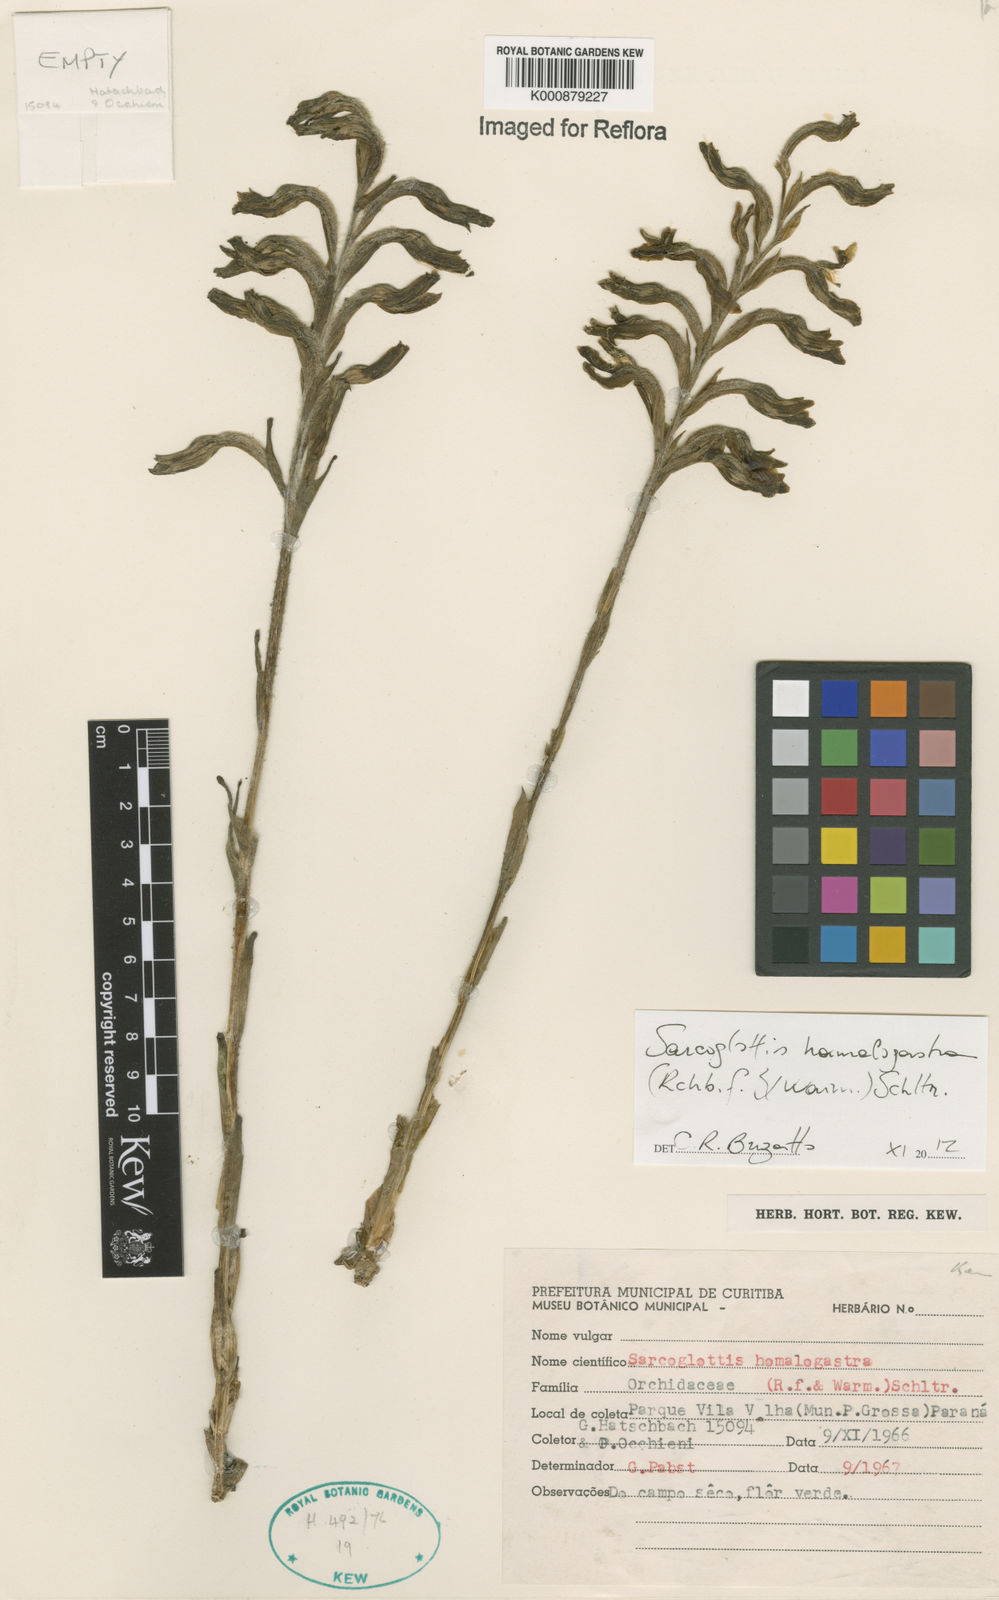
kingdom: Plantae
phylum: Tracheophyta
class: Liliopsida
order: Asparagales
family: Orchidaceae
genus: Sarcoglottis
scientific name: Sarcoglottis homalogastra
